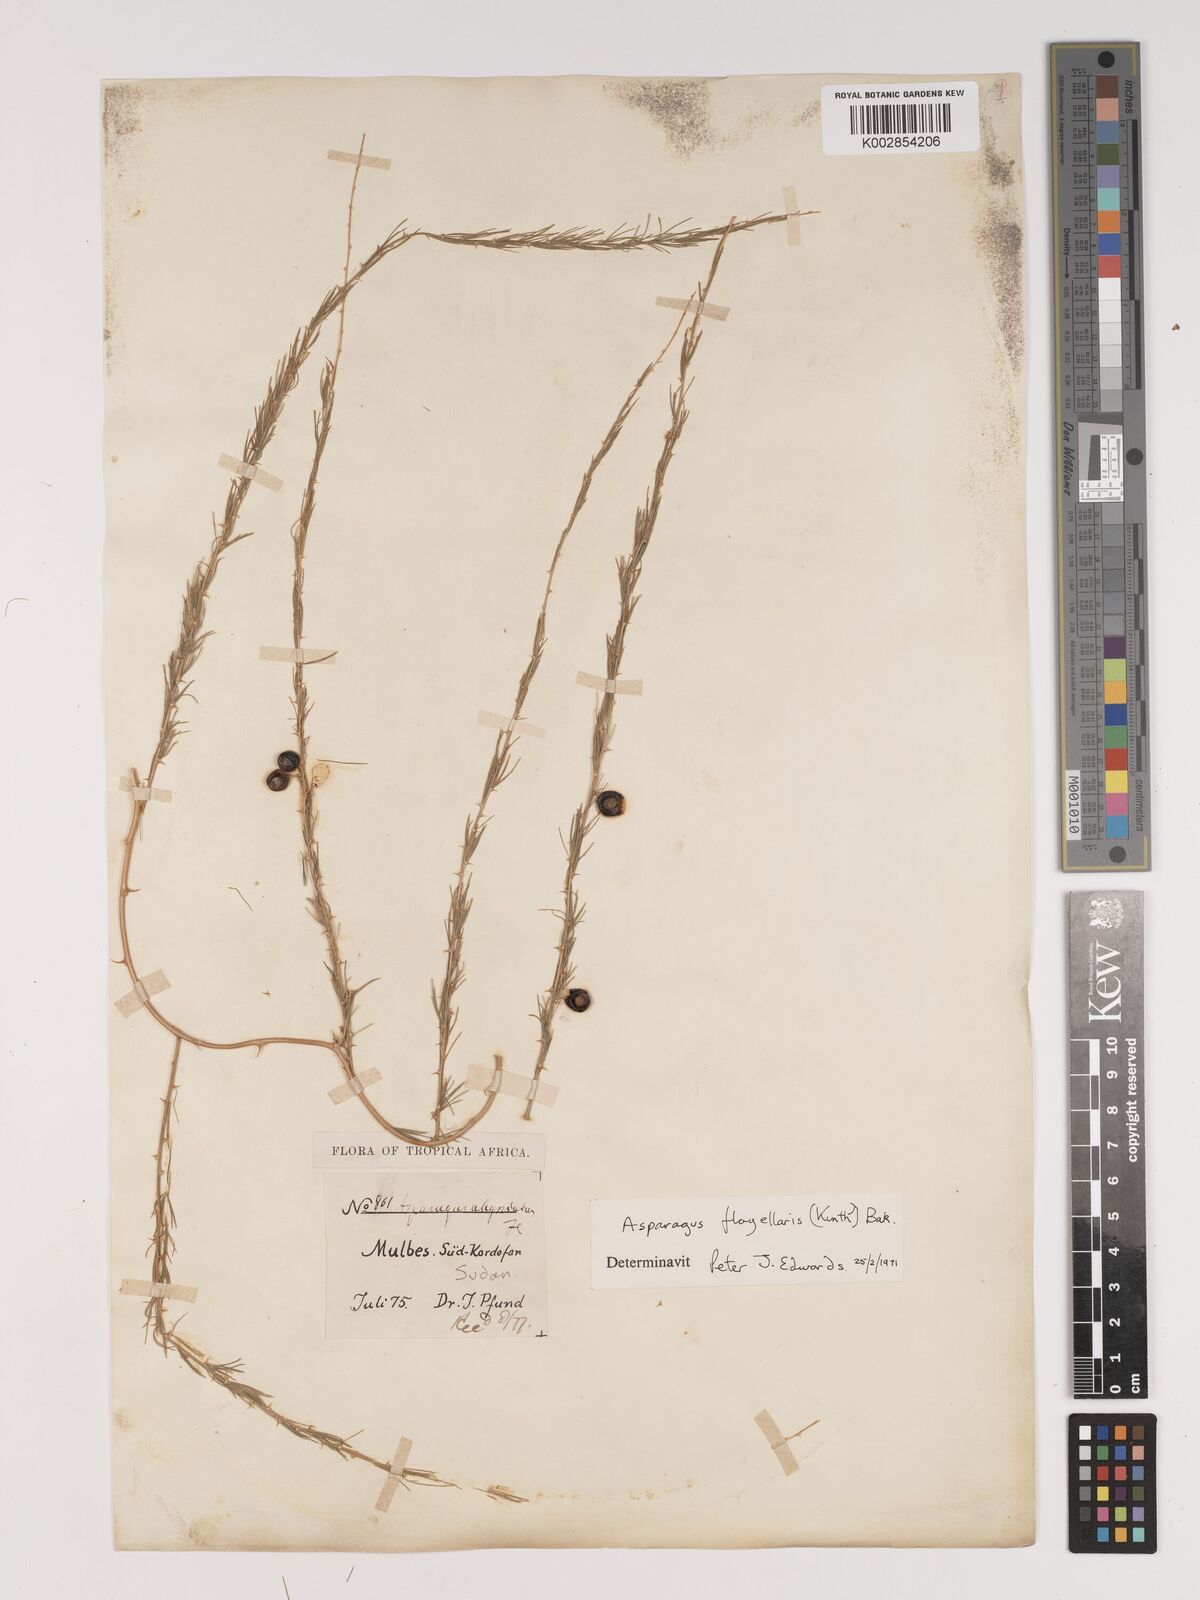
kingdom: Plantae
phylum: Tracheophyta
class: Liliopsida
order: Asparagales
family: Asparagaceae
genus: Asparagus
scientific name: Asparagus flagellaris
